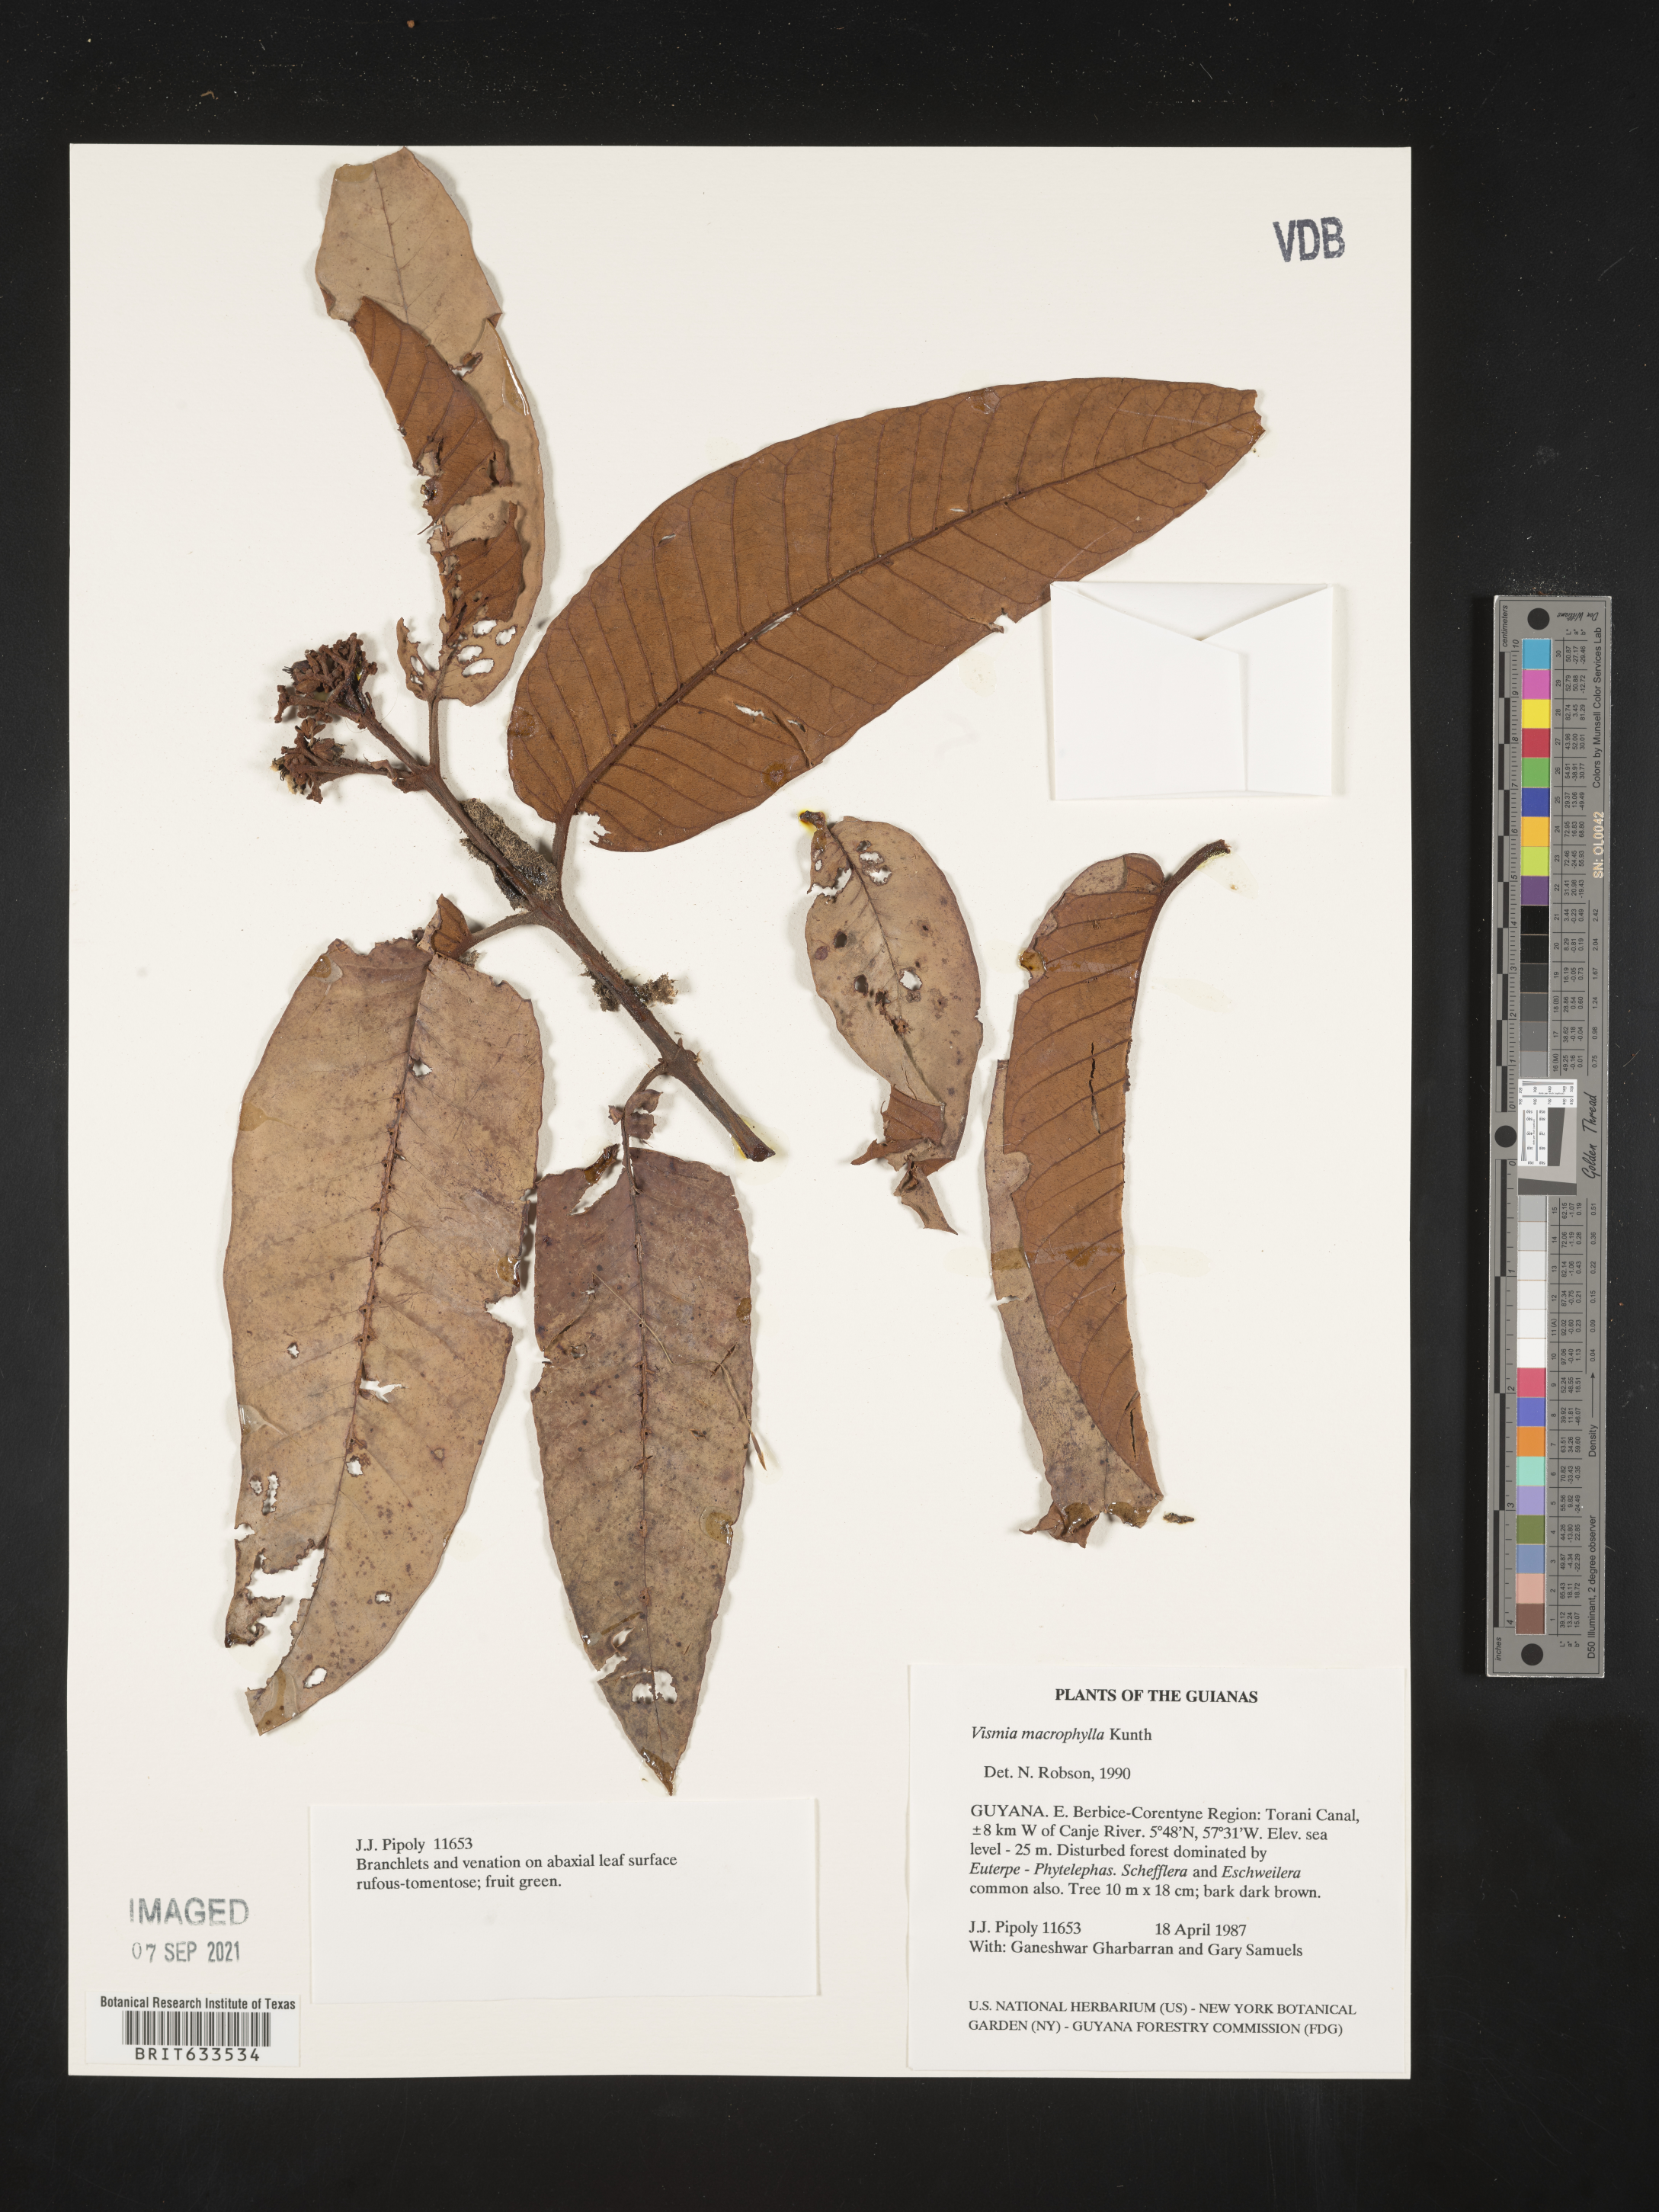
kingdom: Plantae
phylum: Tracheophyta
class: Magnoliopsida
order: Malpighiales
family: Hypericaceae
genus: Vismia
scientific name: Vismia
